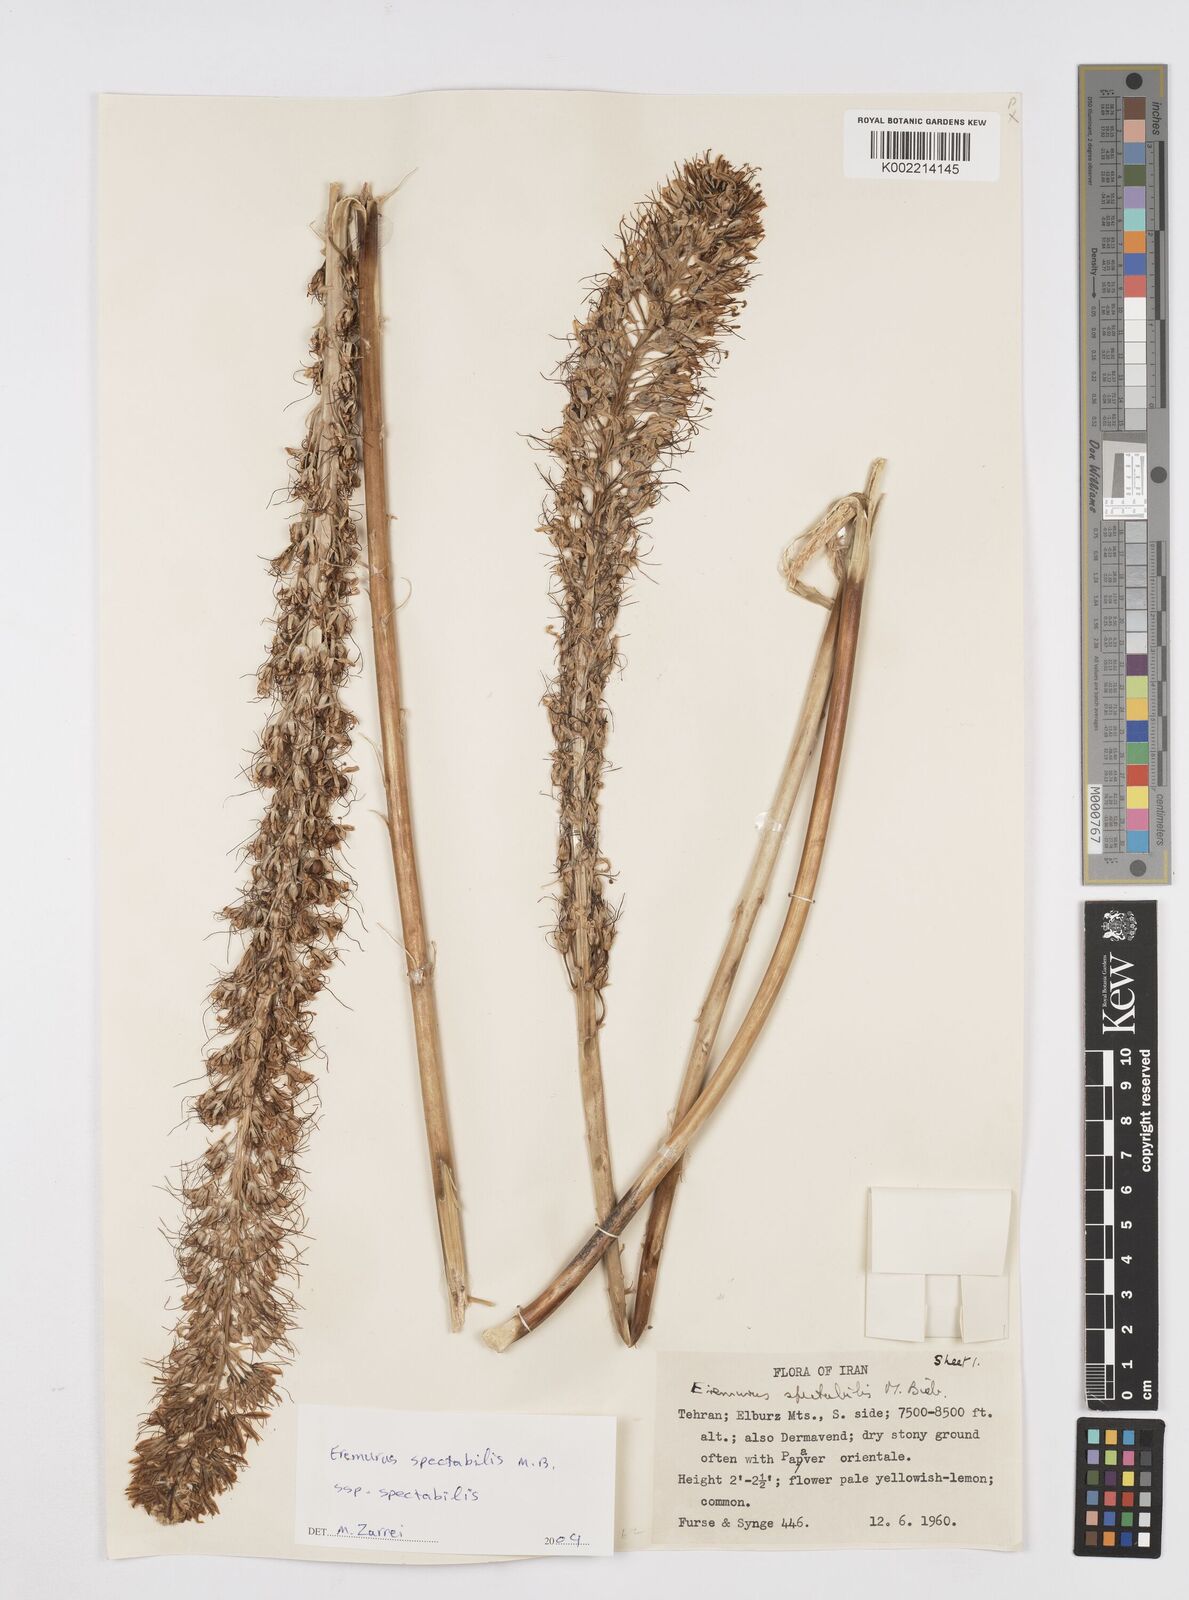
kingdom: Plantae
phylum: Tracheophyta
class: Liliopsida
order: Asparagales
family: Asphodelaceae
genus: Eremurus
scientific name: Eremurus spectabilis
